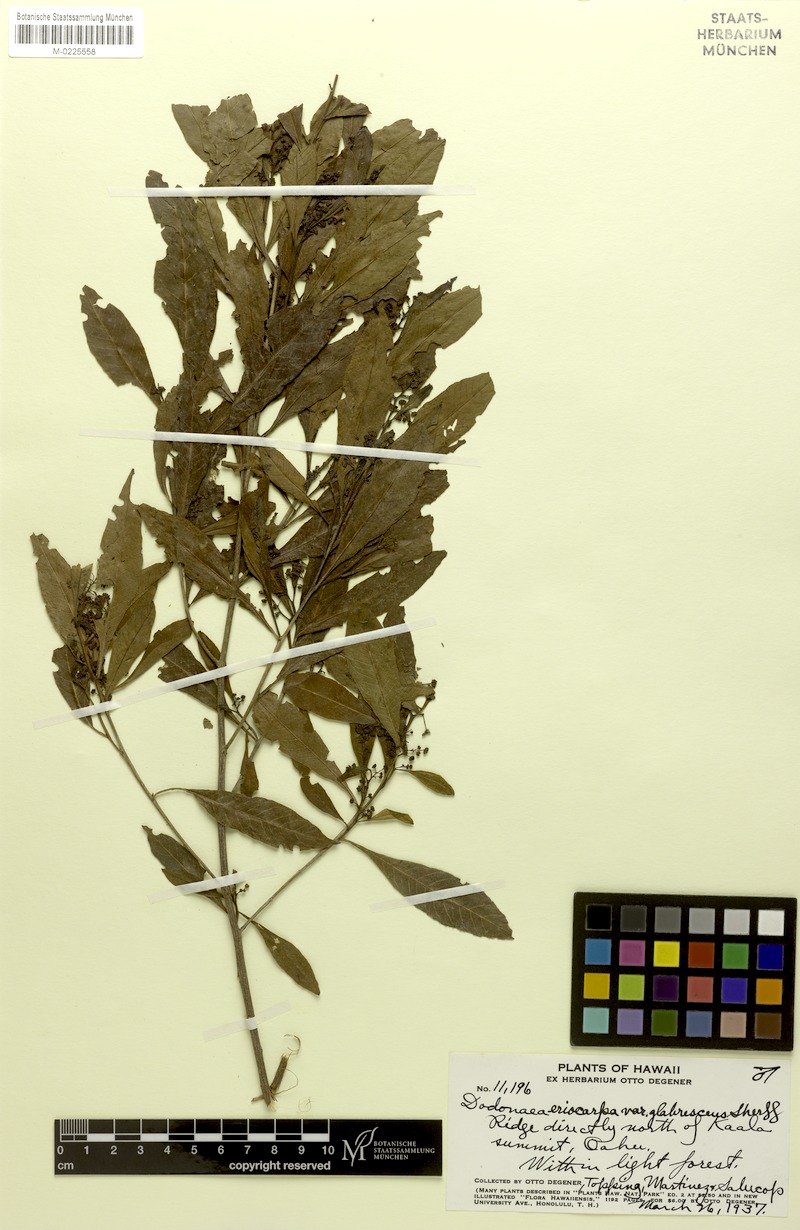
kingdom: Plantae
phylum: Tracheophyta
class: Magnoliopsida
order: Sapindales
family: Sapindaceae
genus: Dodonaea
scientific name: Dodonaea viscosa
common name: Hopbush
